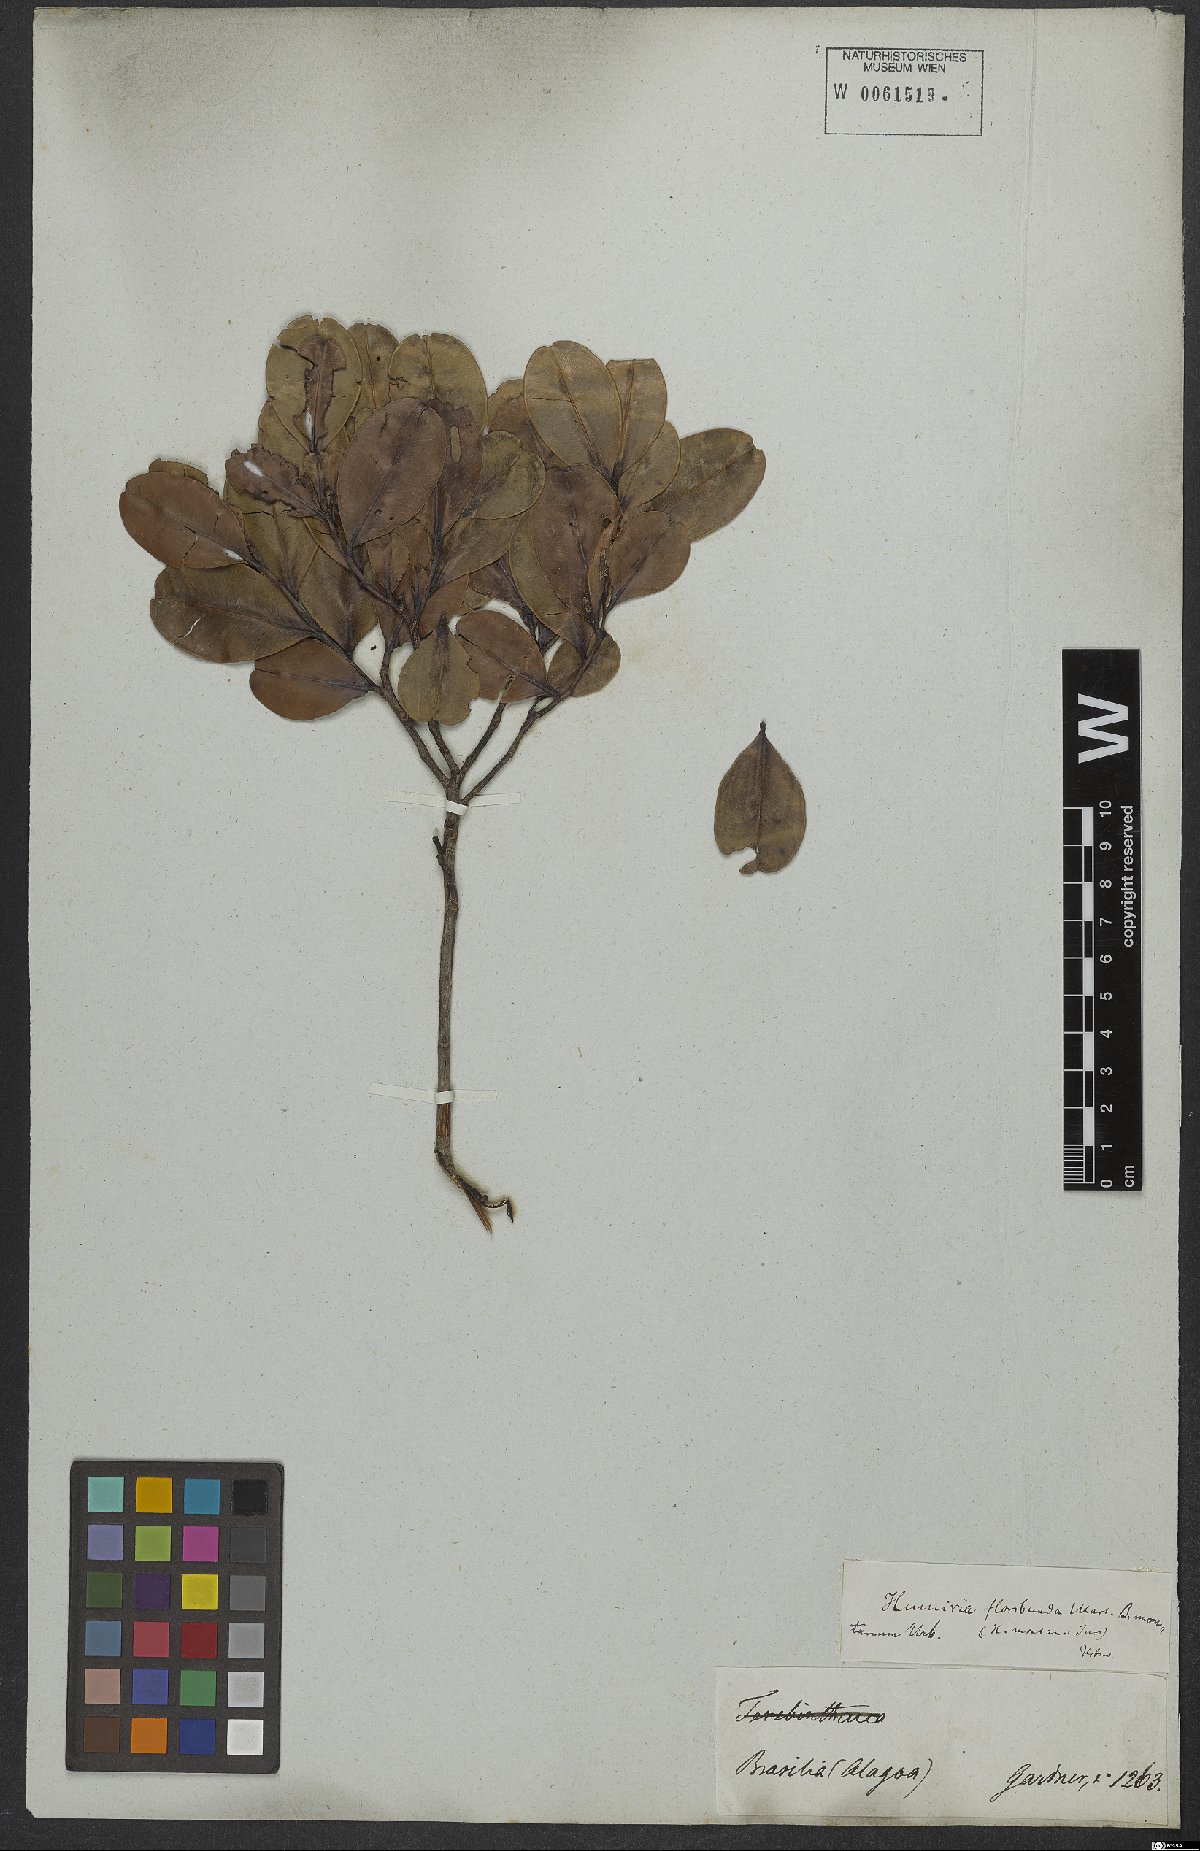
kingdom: Plantae
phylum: Tracheophyta
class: Magnoliopsida
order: Malpighiales
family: Humiriaceae
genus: Humiria
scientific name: Humiria
